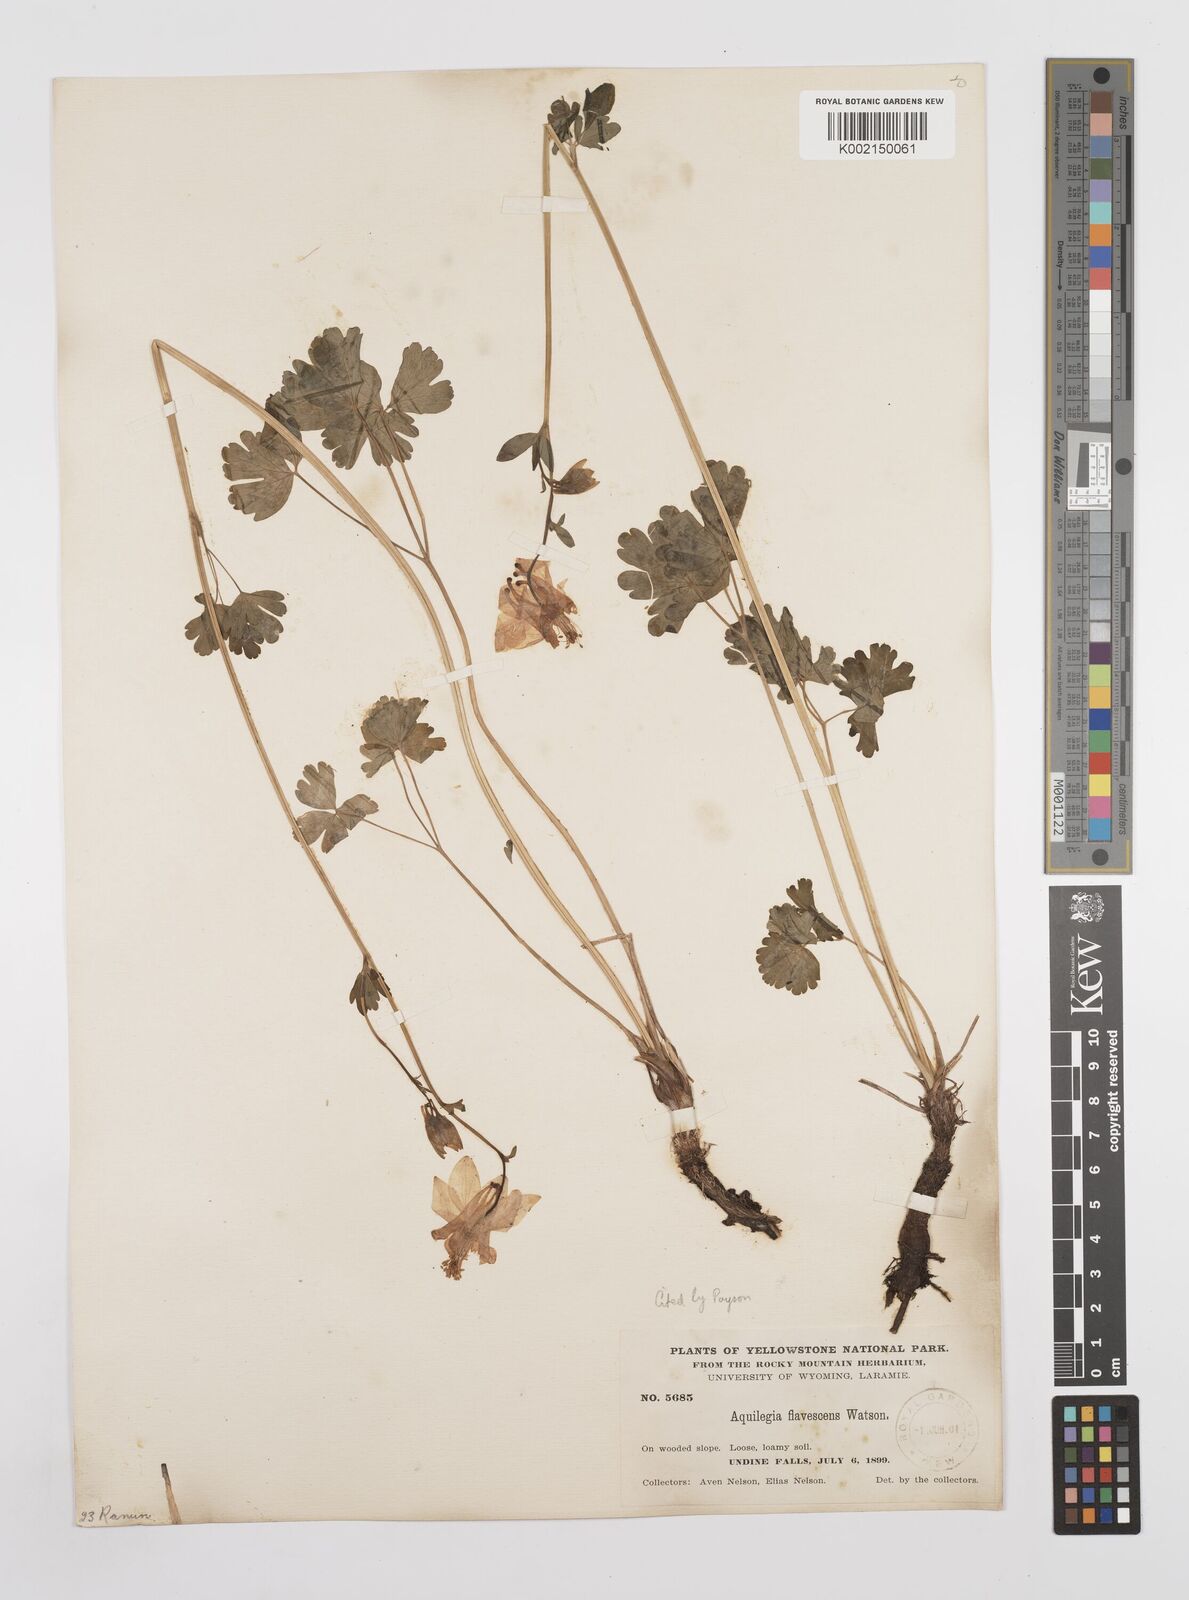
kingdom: Plantae
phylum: Tracheophyta
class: Magnoliopsida
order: Ranunculales
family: Ranunculaceae
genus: Aquilegia
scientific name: Aquilegia flavescens
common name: Yellow columbine
